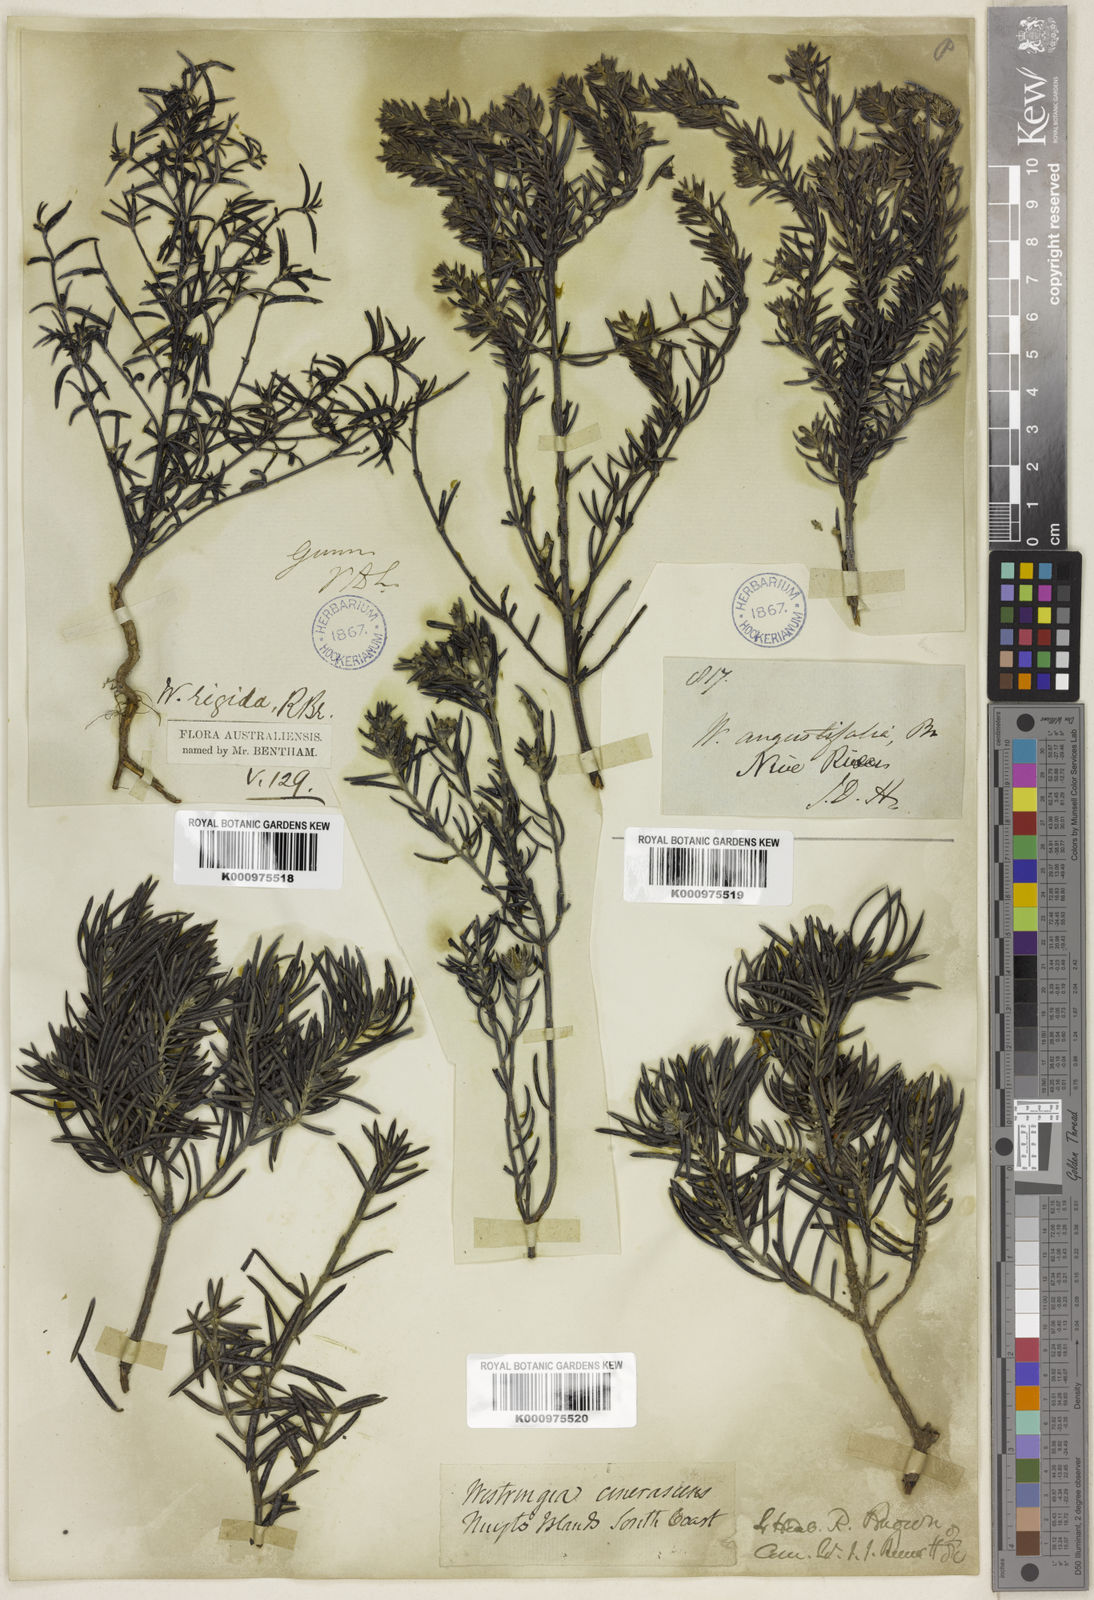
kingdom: Plantae
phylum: Tracheophyta
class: Magnoliopsida
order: Lamiales
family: Lamiaceae
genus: Westringia
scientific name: Westringia rigida
